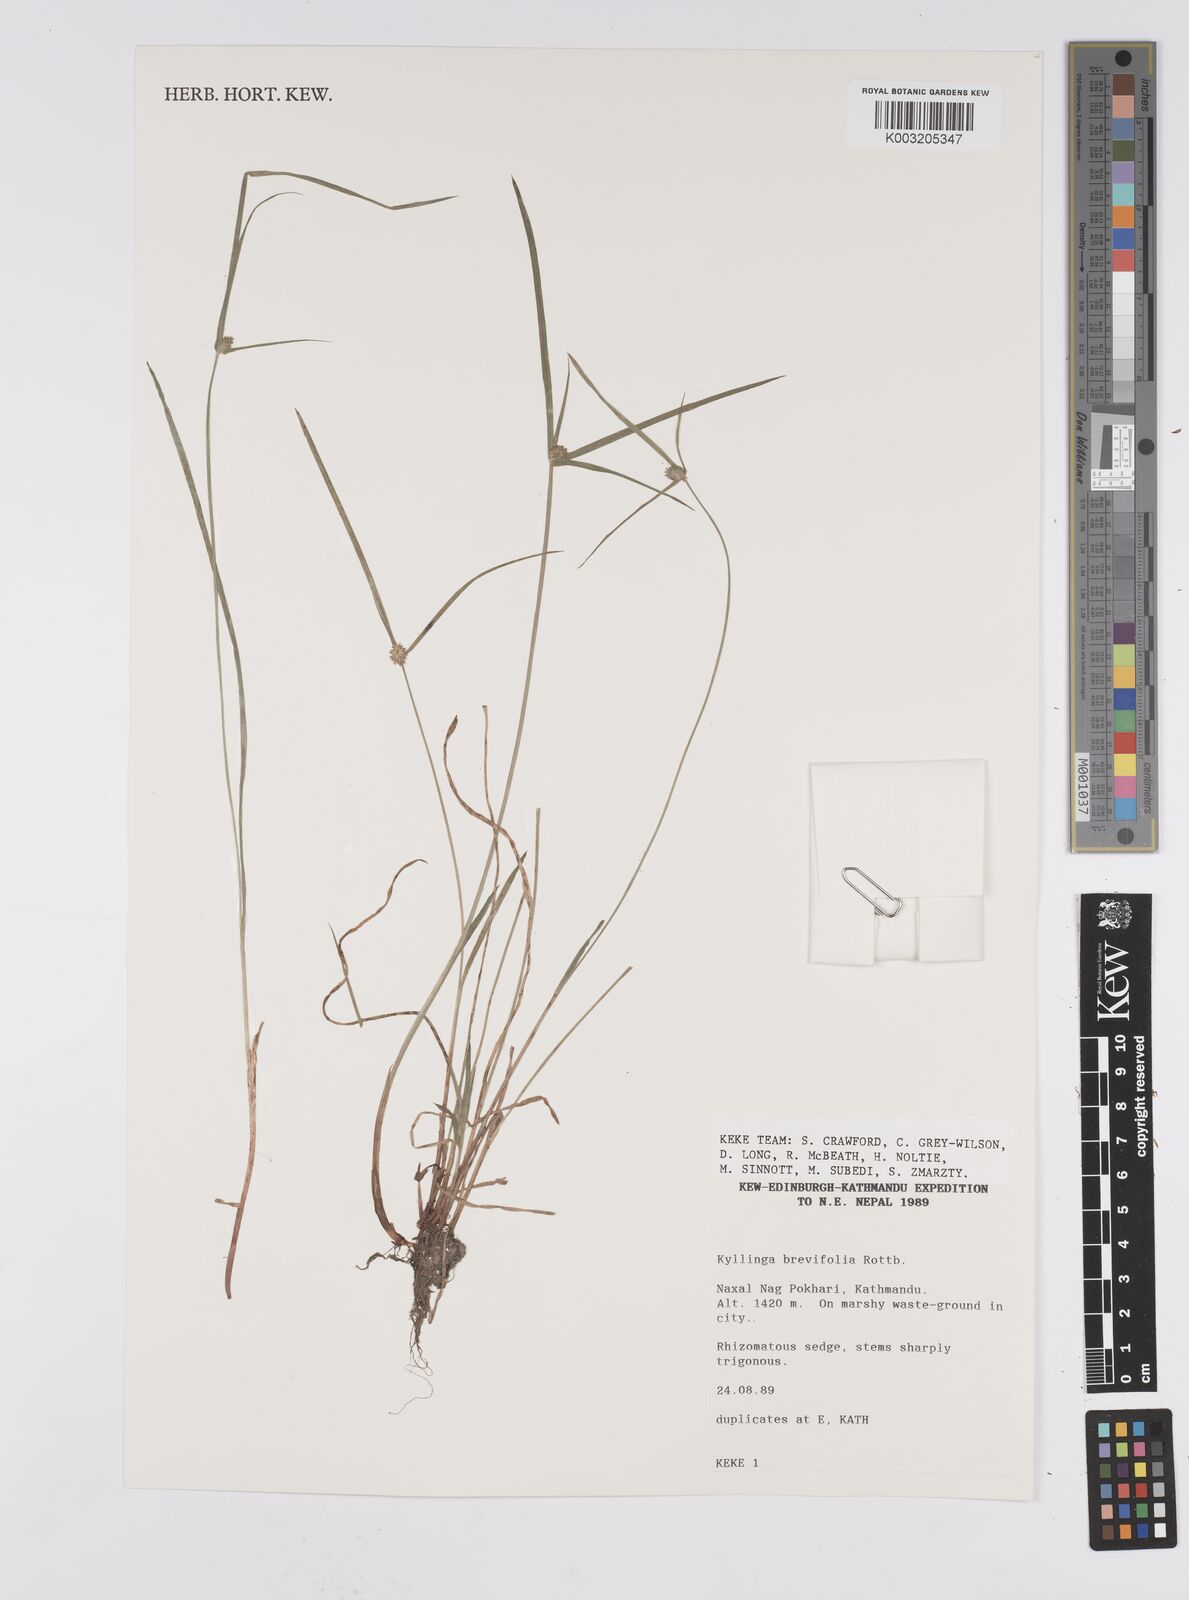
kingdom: Plantae
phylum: Tracheophyta
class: Liliopsida
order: Poales
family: Cyperaceae
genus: Cyperus
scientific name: Cyperus brevifolius
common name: Globe kyllinga
